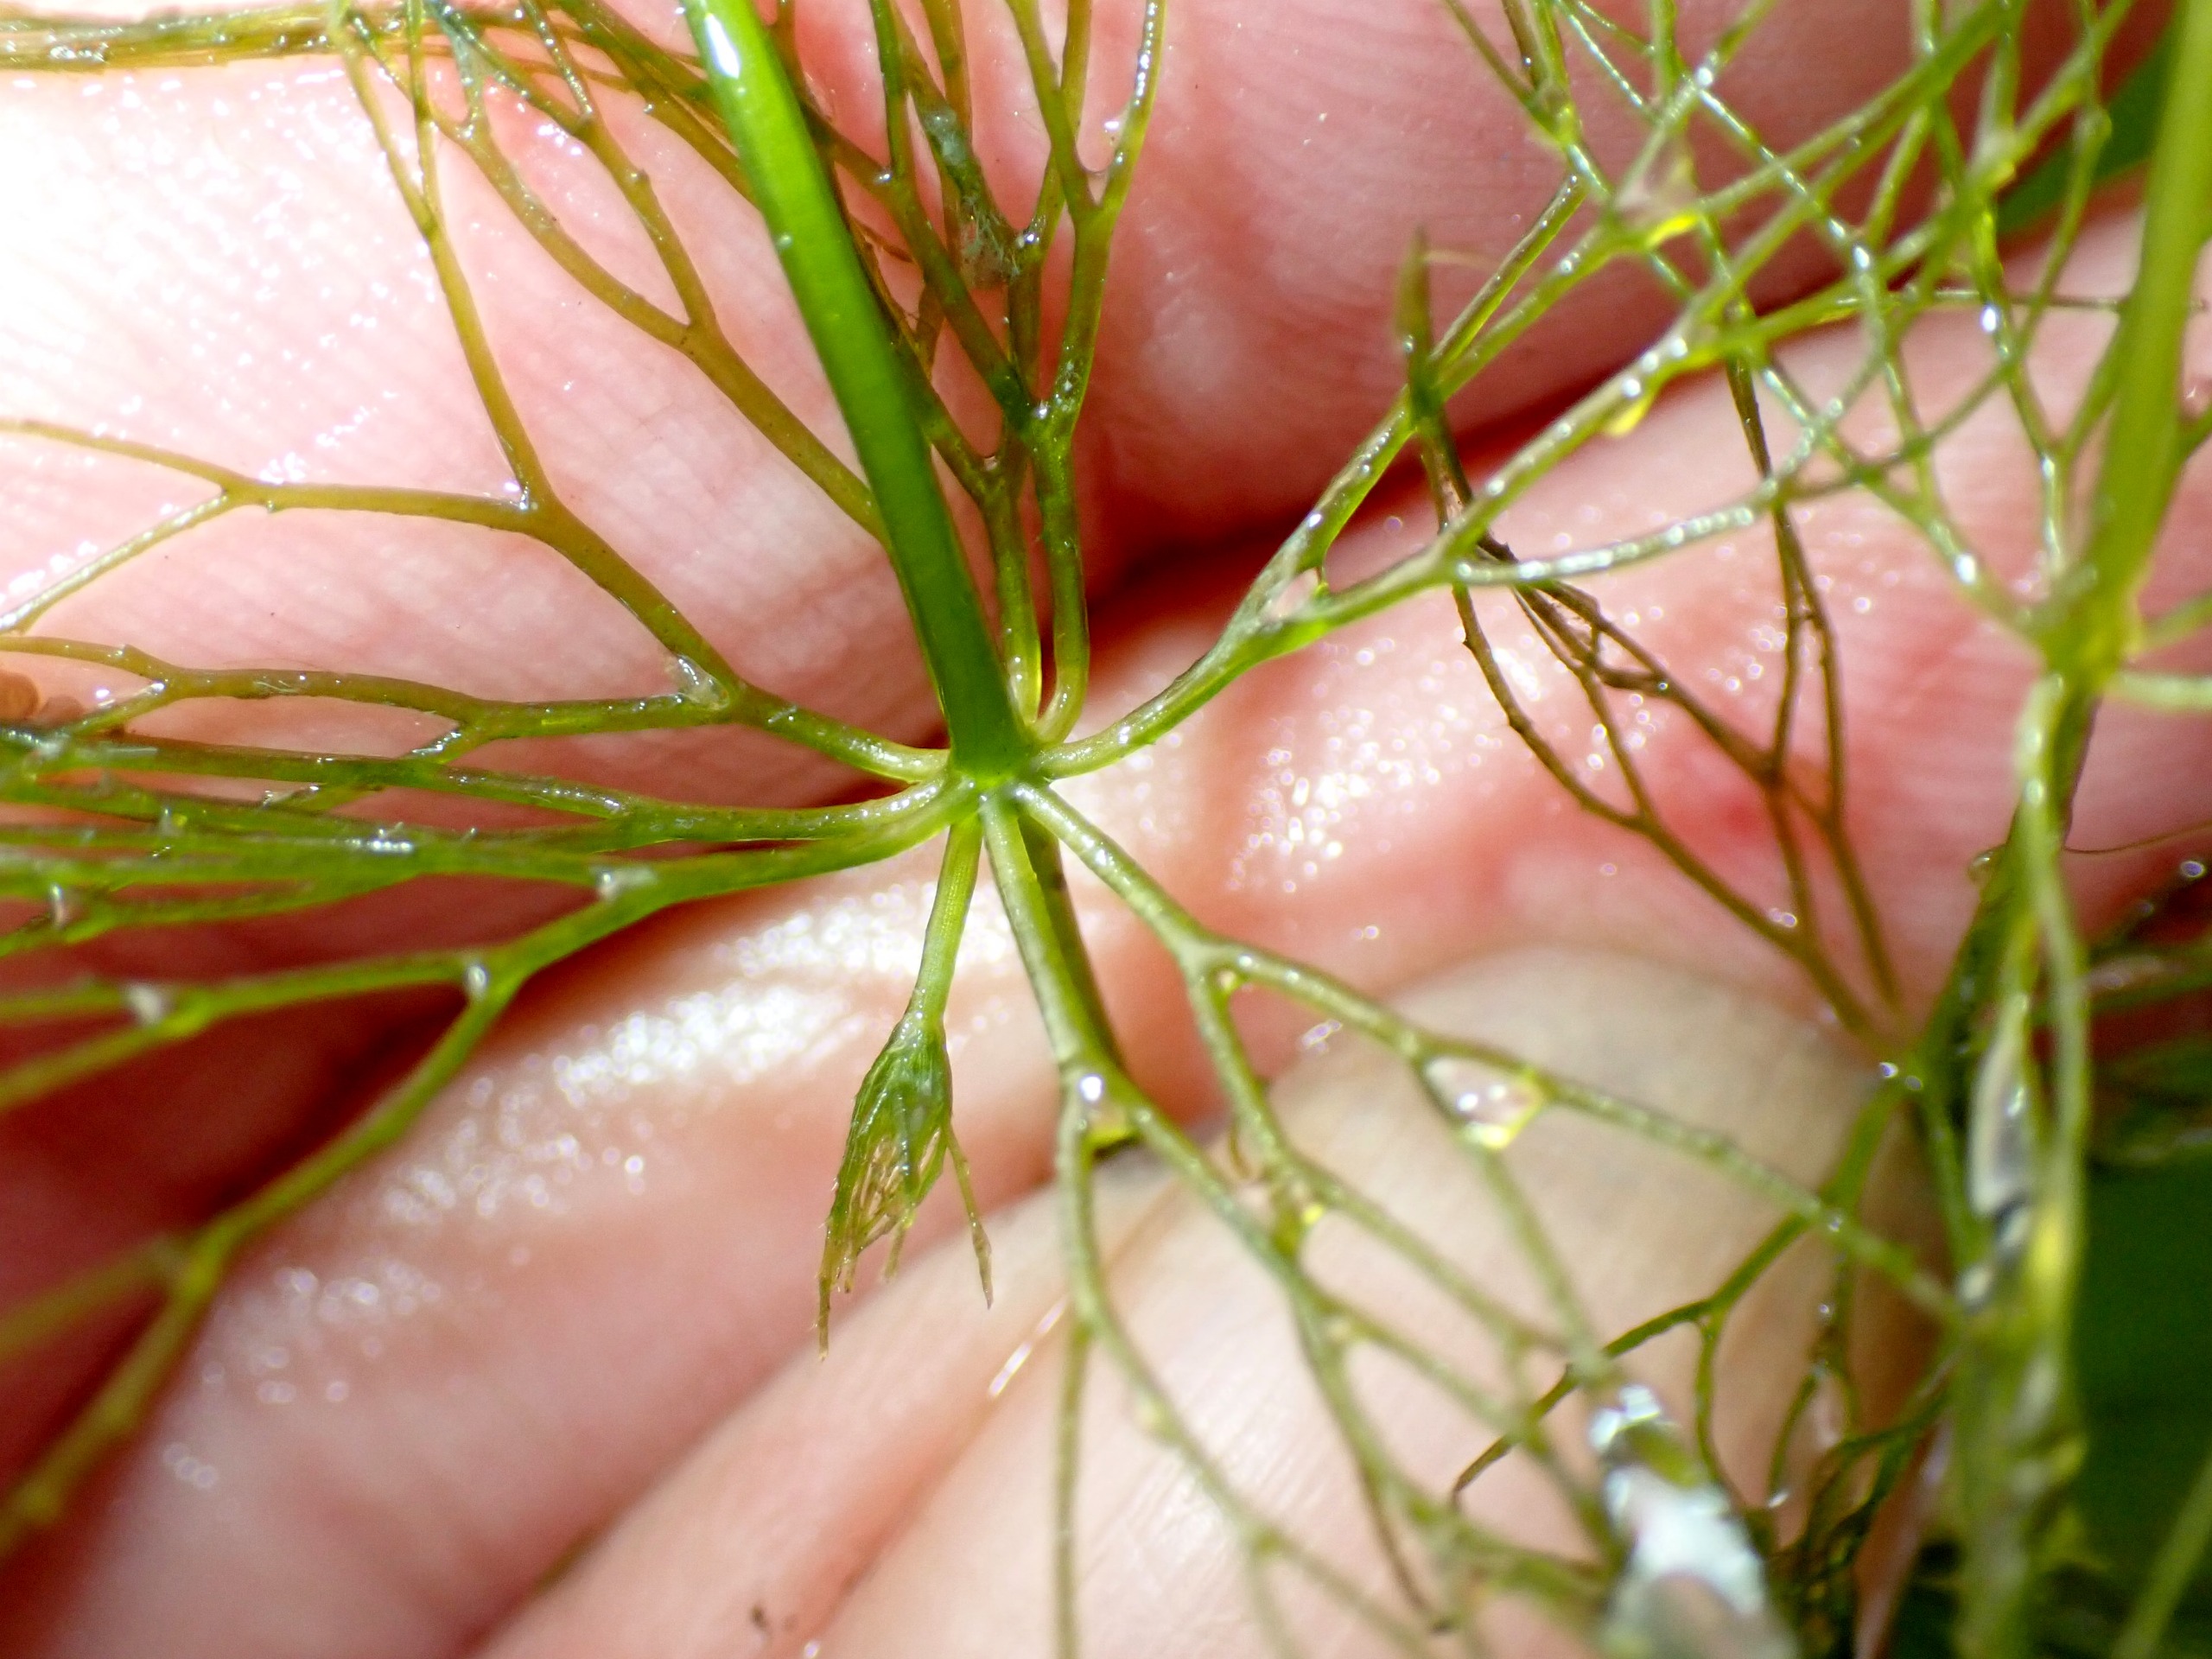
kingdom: Plantae
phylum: Tracheophyta
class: Magnoliopsida
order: Ceratophyllales
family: Ceratophyllaceae
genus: Ceratophyllum
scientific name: Ceratophyllum submersum
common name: Tornløs hornblad
